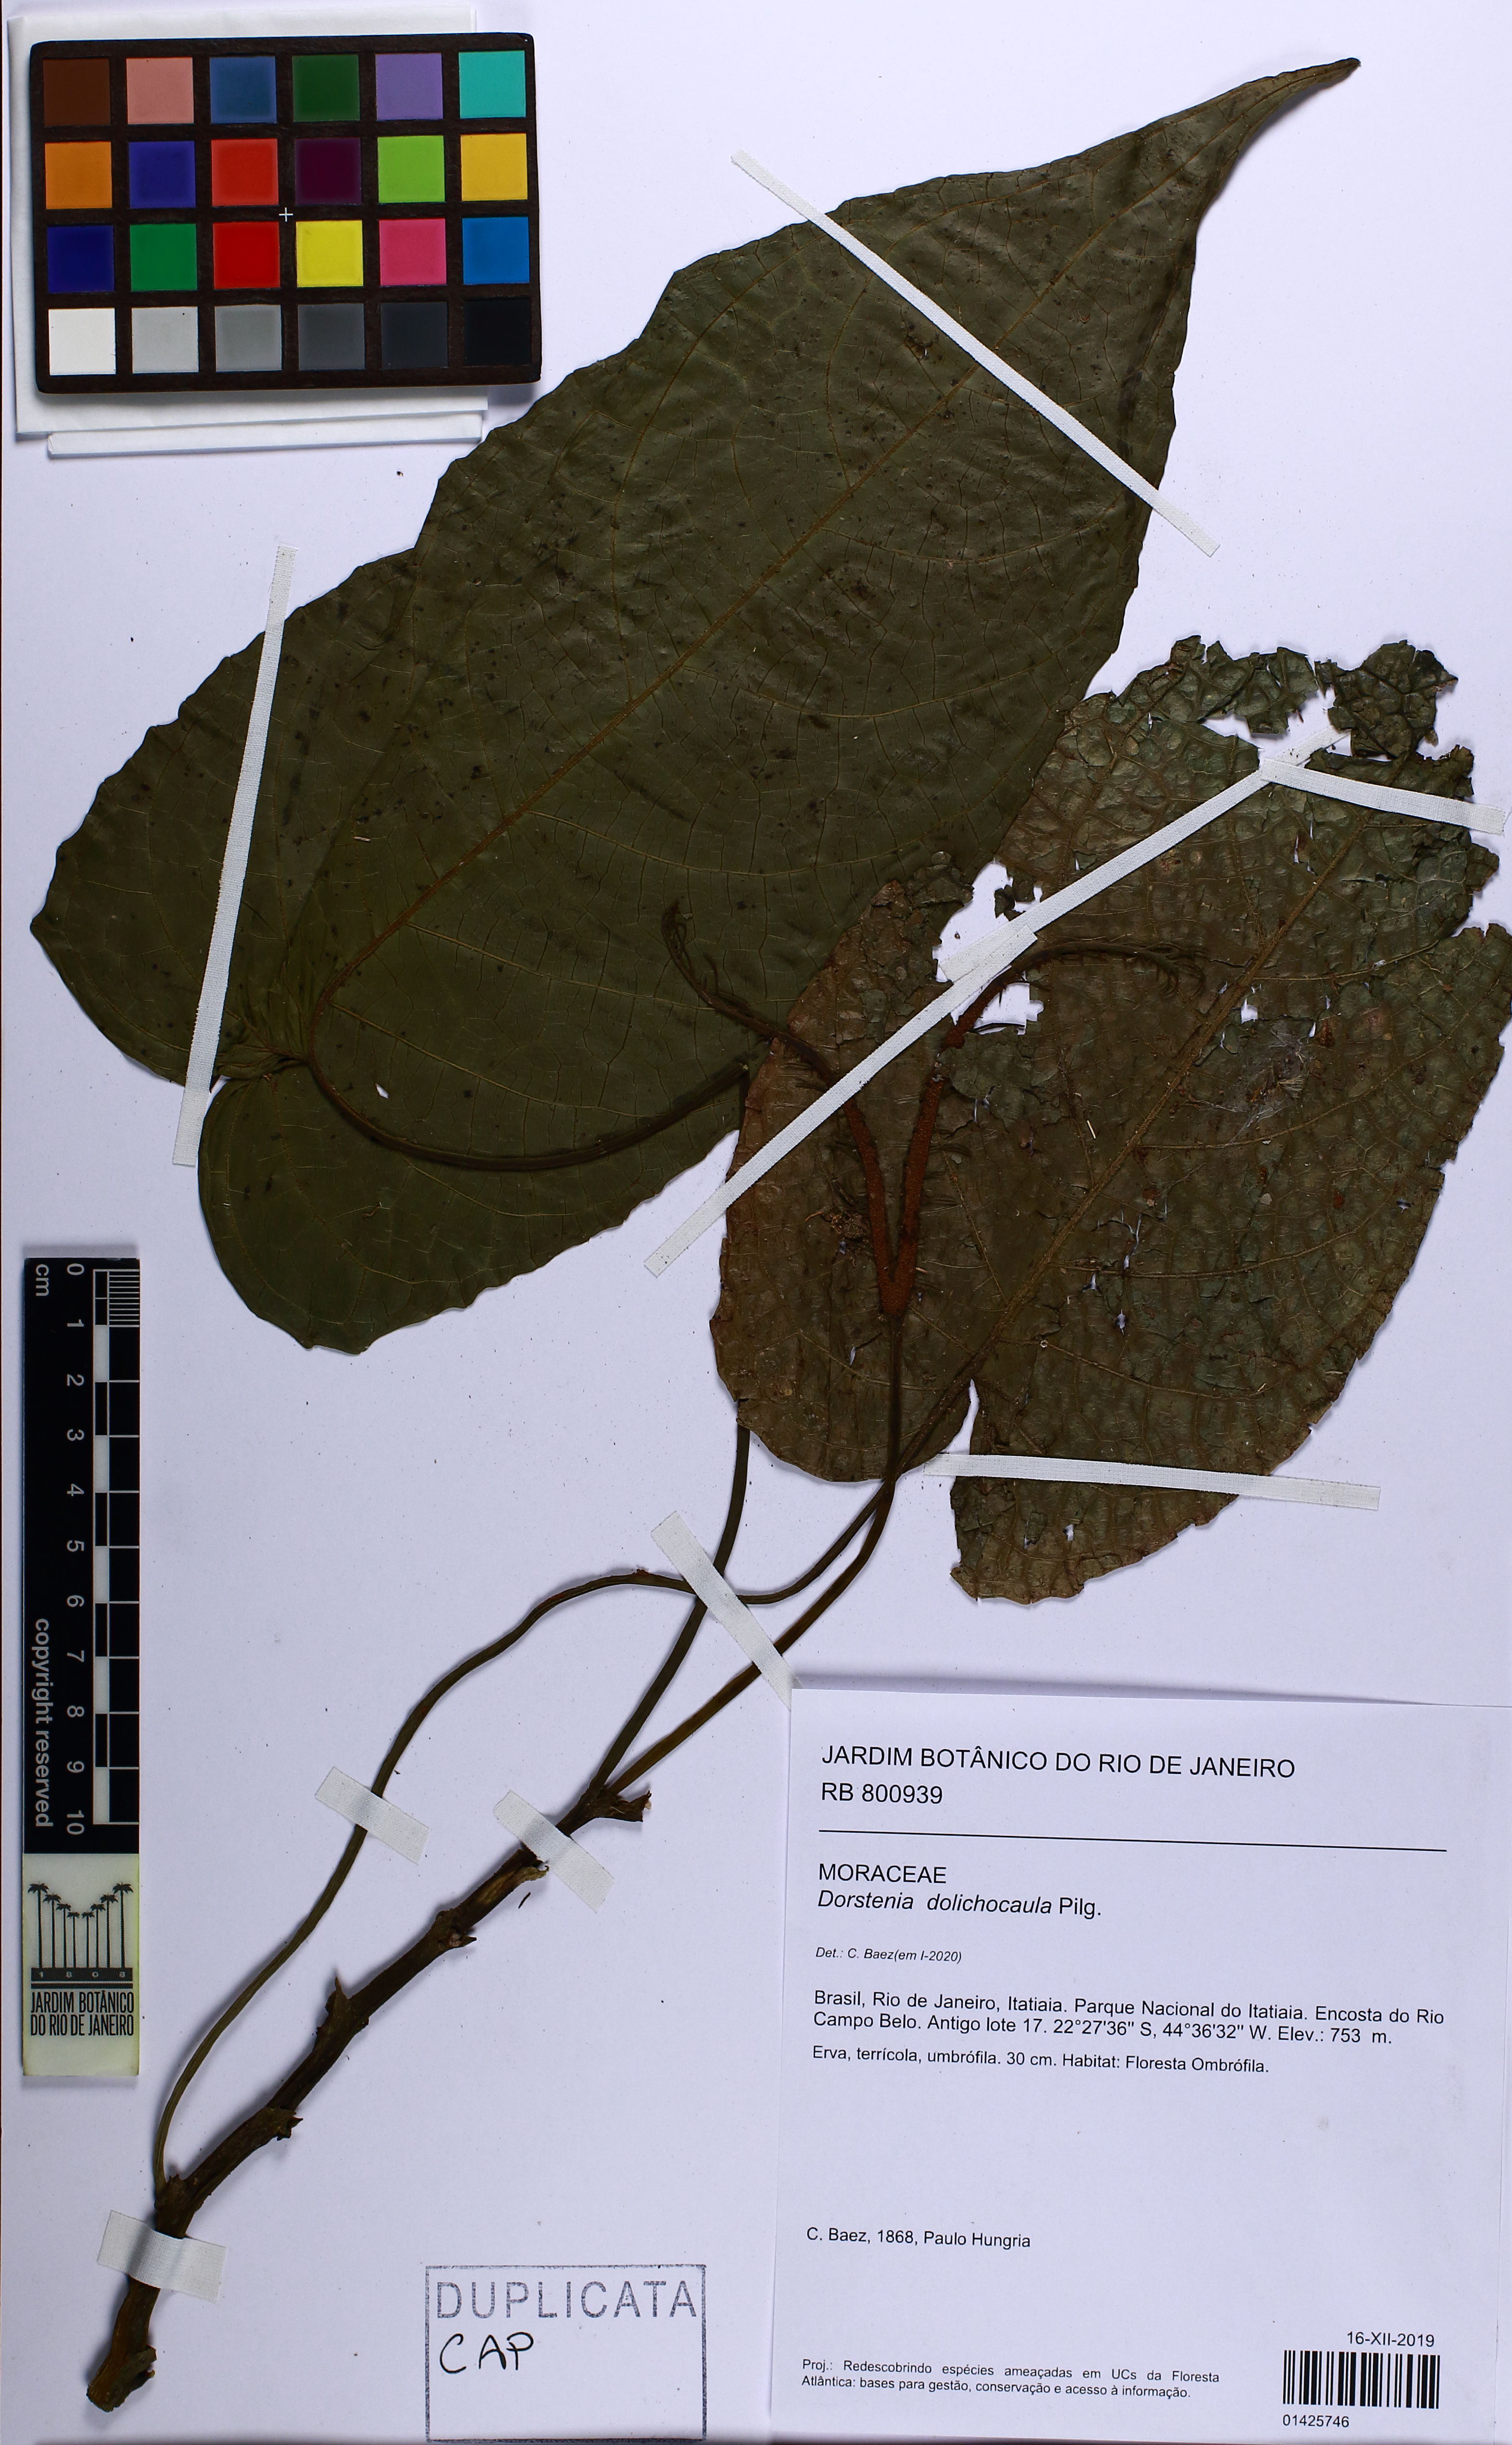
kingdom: Plantae
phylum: Tracheophyta
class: Magnoliopsida
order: Rosales
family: Moraceae
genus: Dorstenia
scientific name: Dorstenia ramosa
